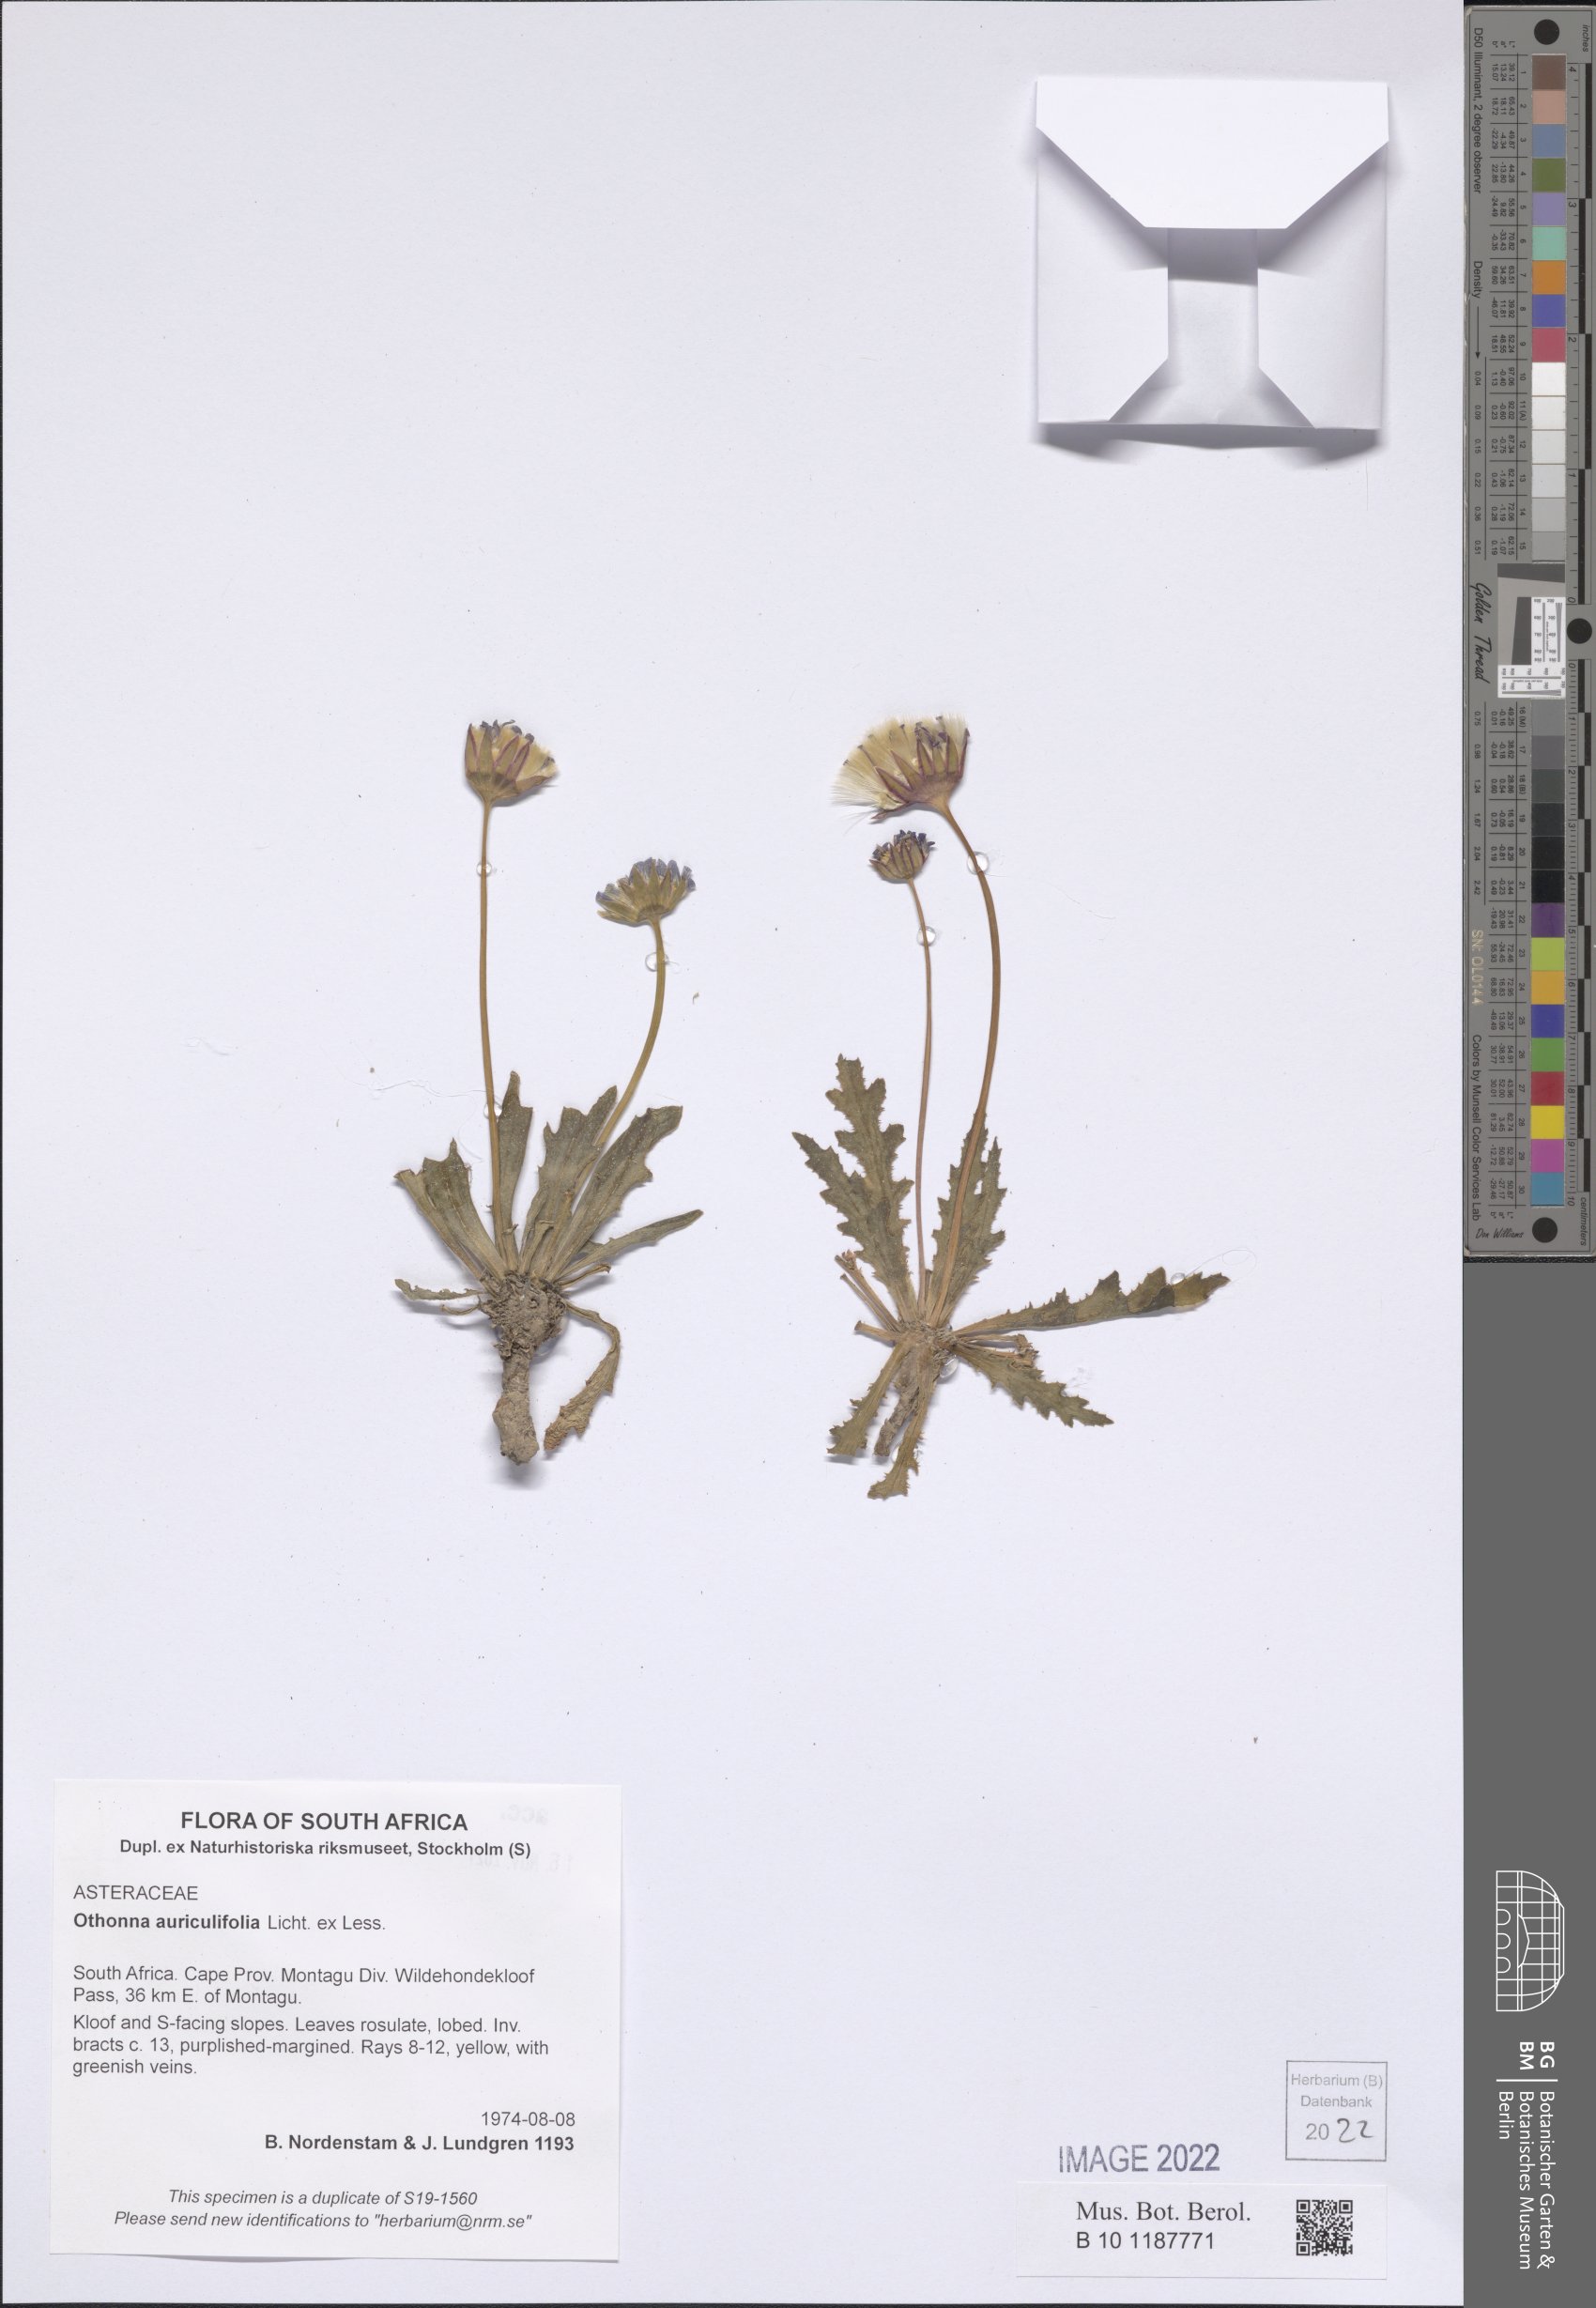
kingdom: Plantae
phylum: Tracheophyta
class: Magnoliopsida
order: Asterales
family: Asteraceae
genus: Othonna
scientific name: Othonna auriculifolia
